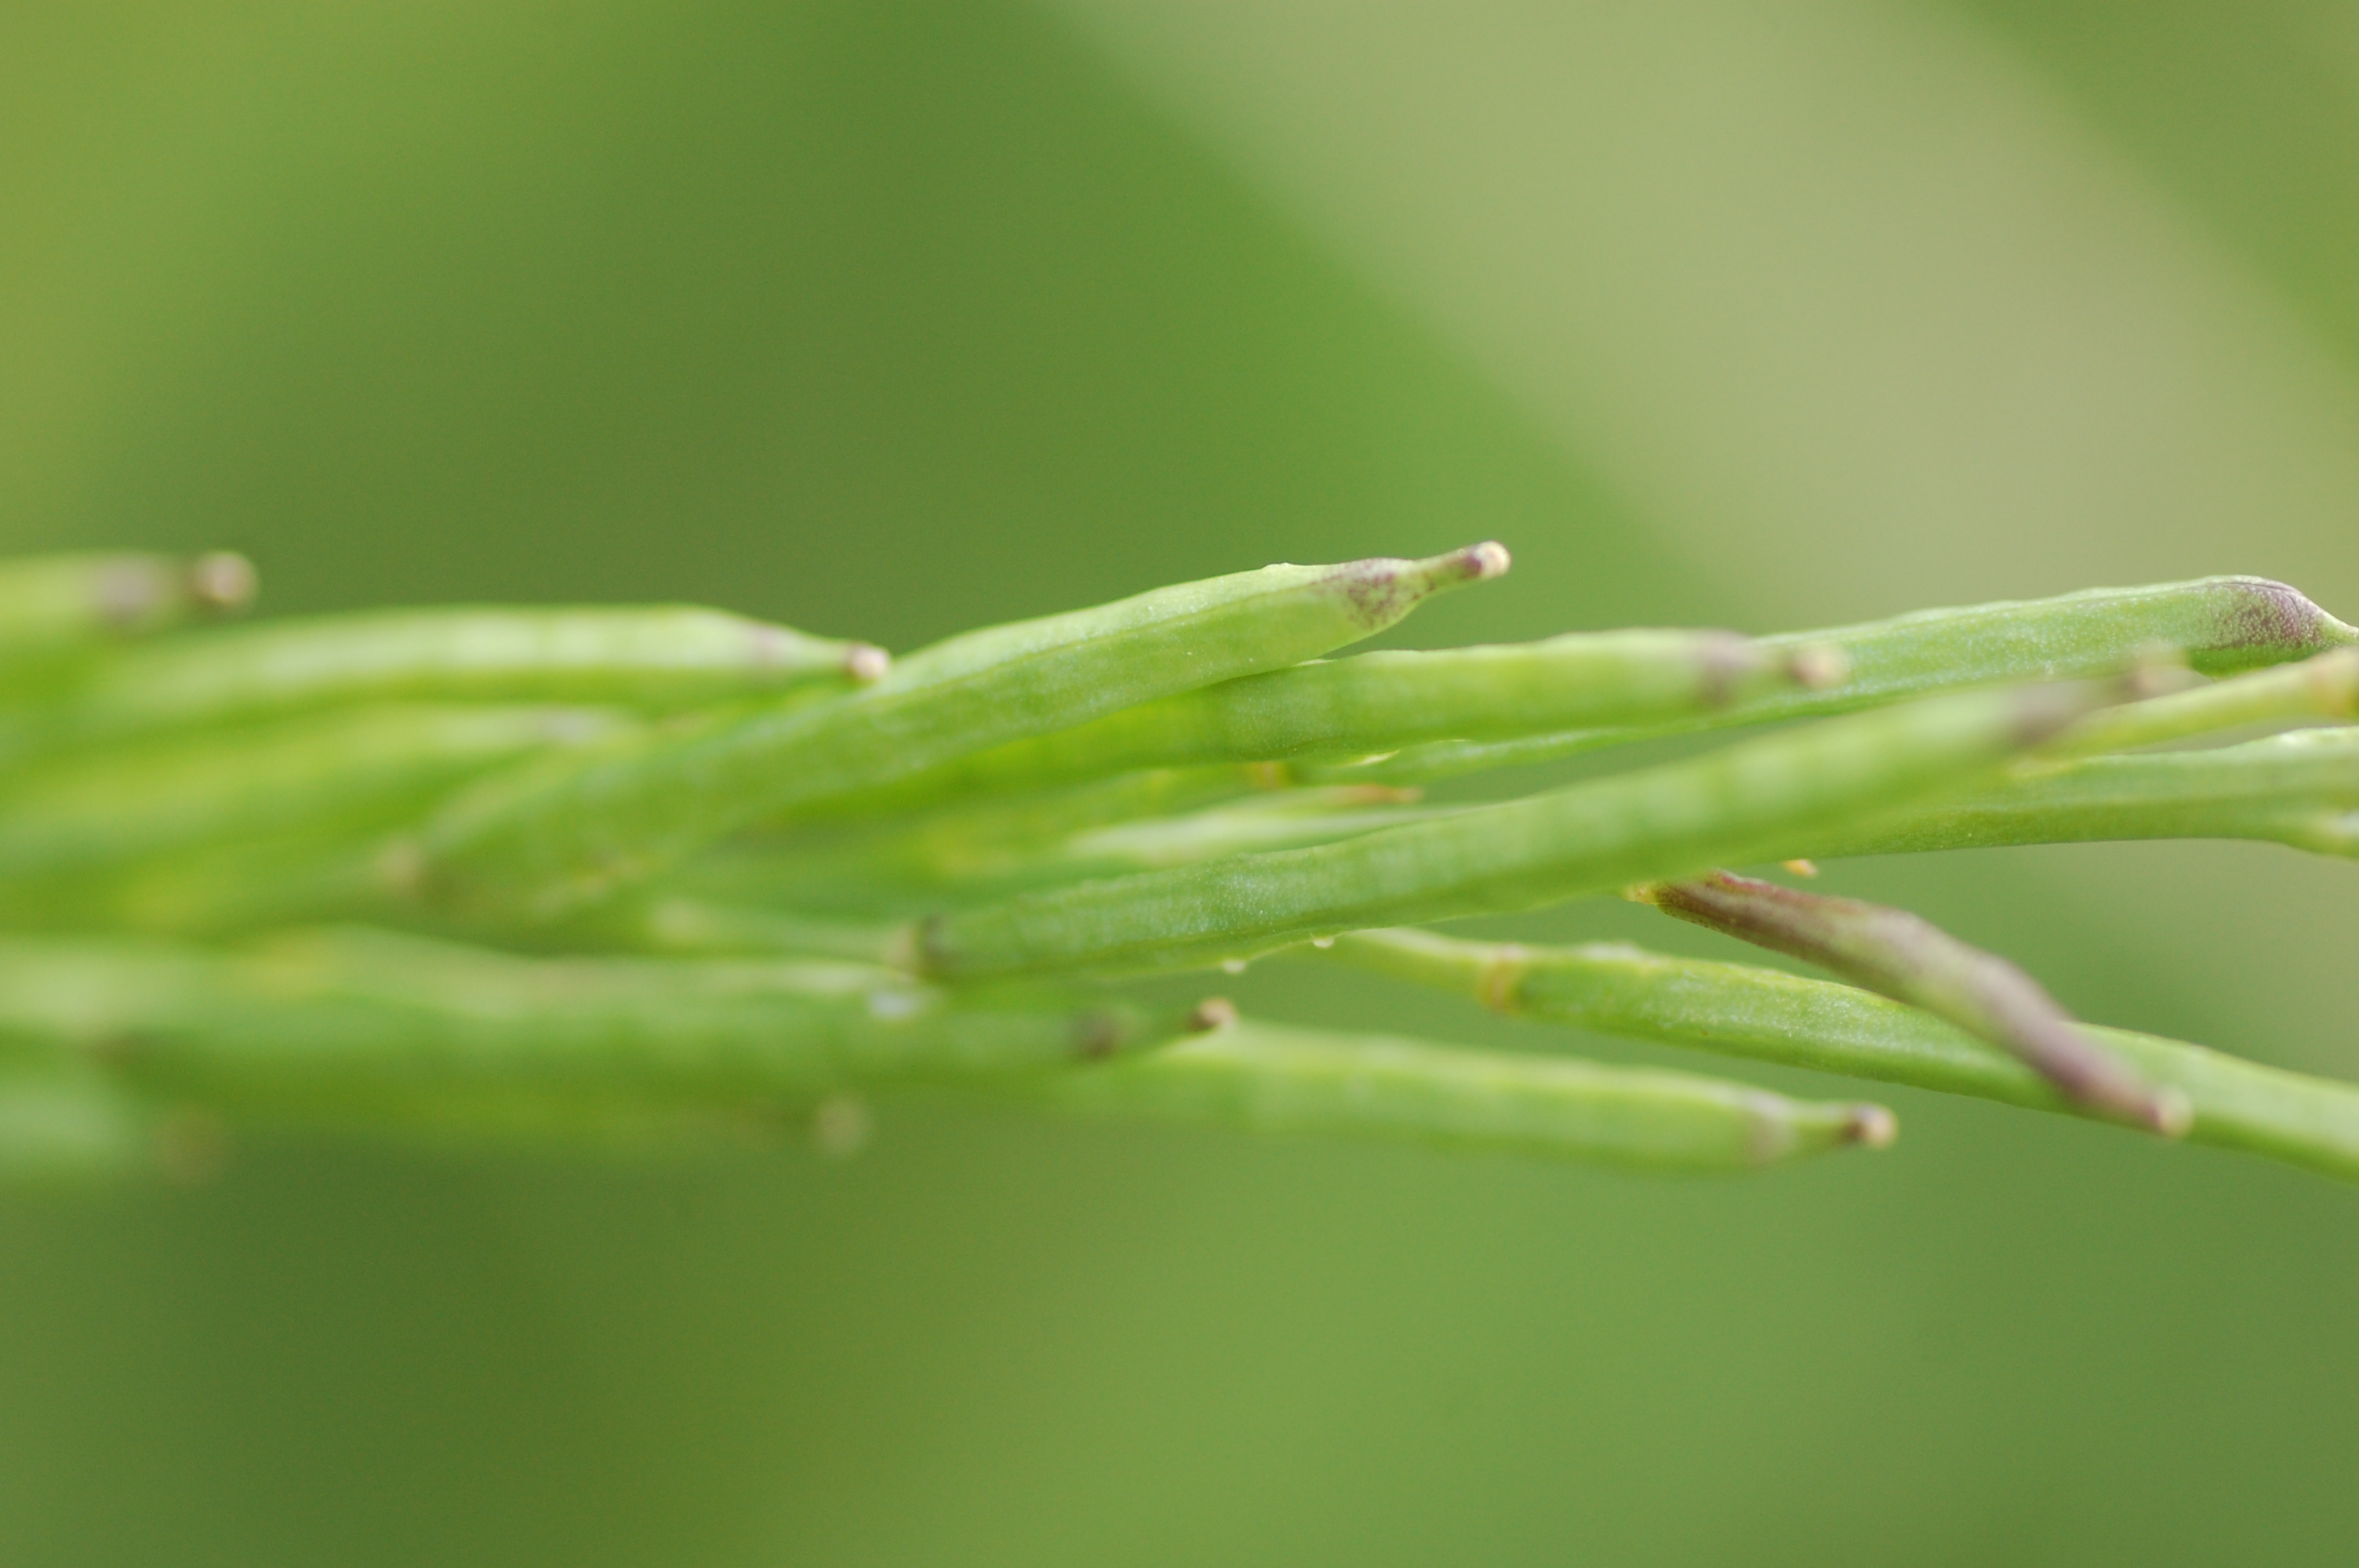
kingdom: Plantae
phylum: Tracheophyta
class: Magnoliopsida
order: Brassicales
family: Brassicaceae
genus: Brassica
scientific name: Brassica nigra
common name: Black mustard
